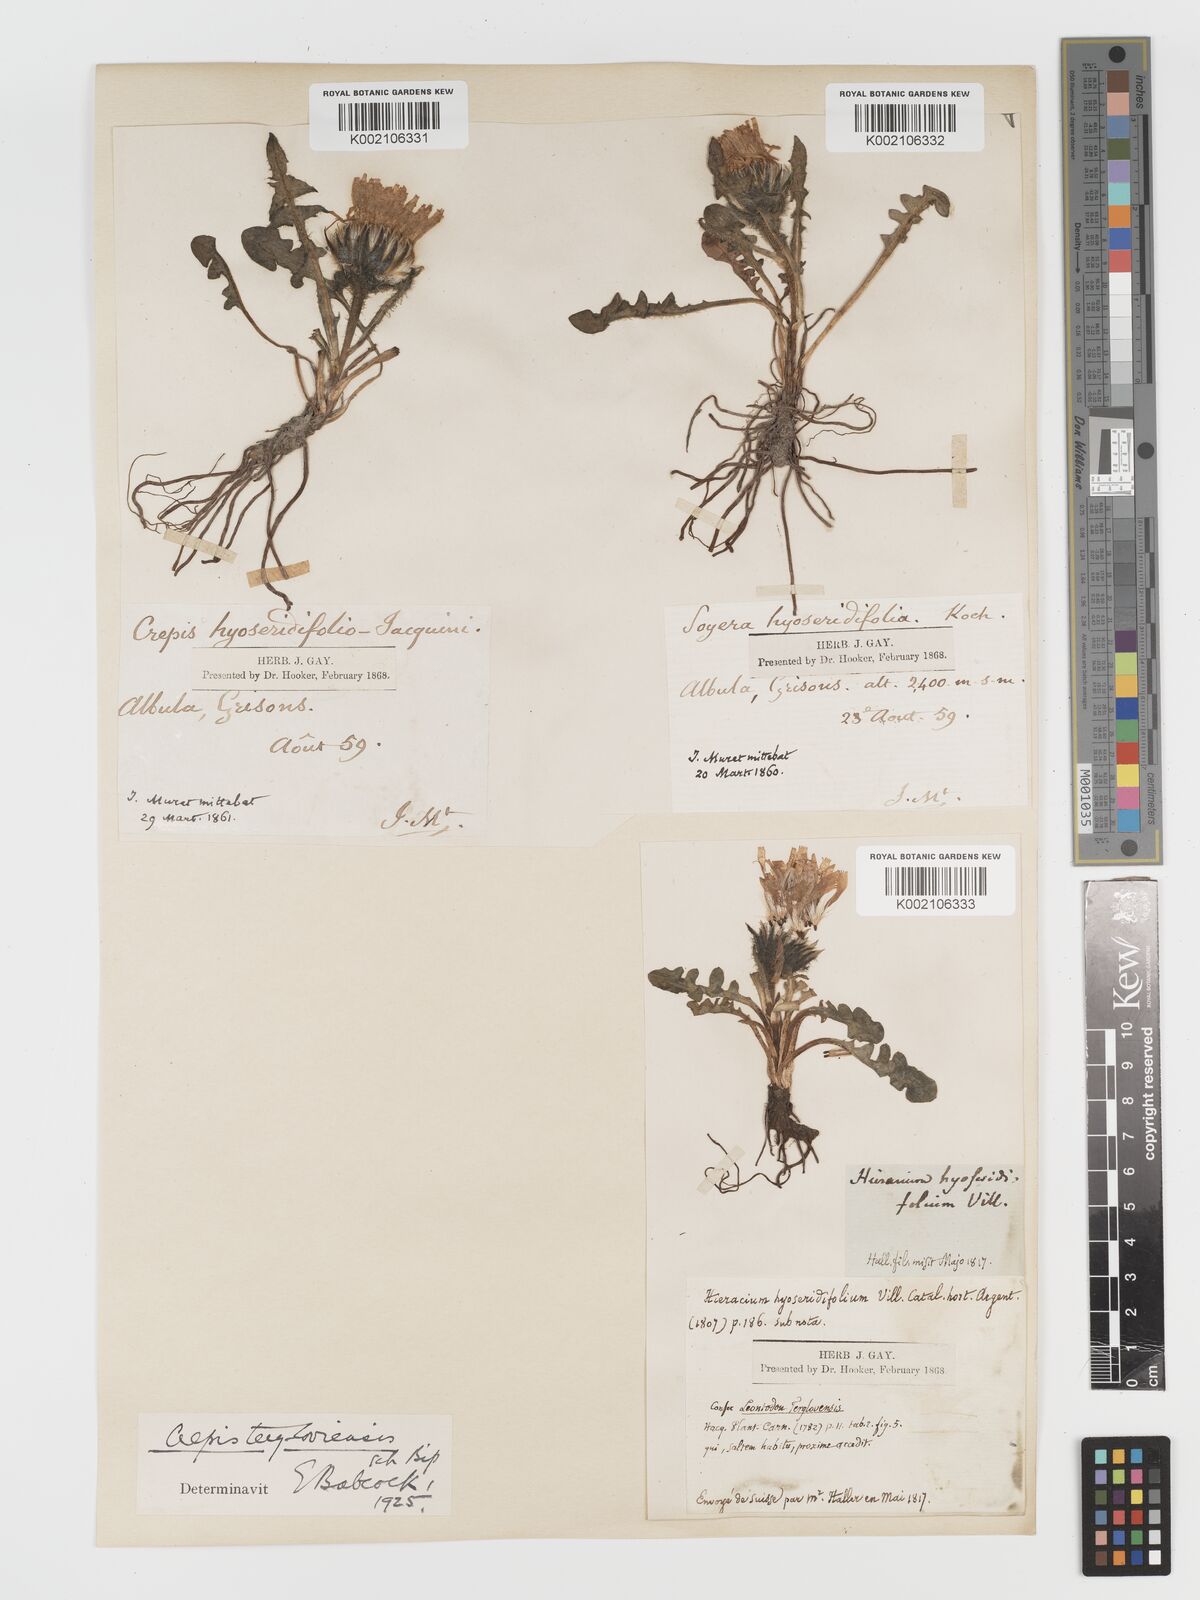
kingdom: Plantae
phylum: Tracheophyta
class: Magnoliopsida
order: Asterales
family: Asteraceae
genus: Crepis
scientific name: Crepis
